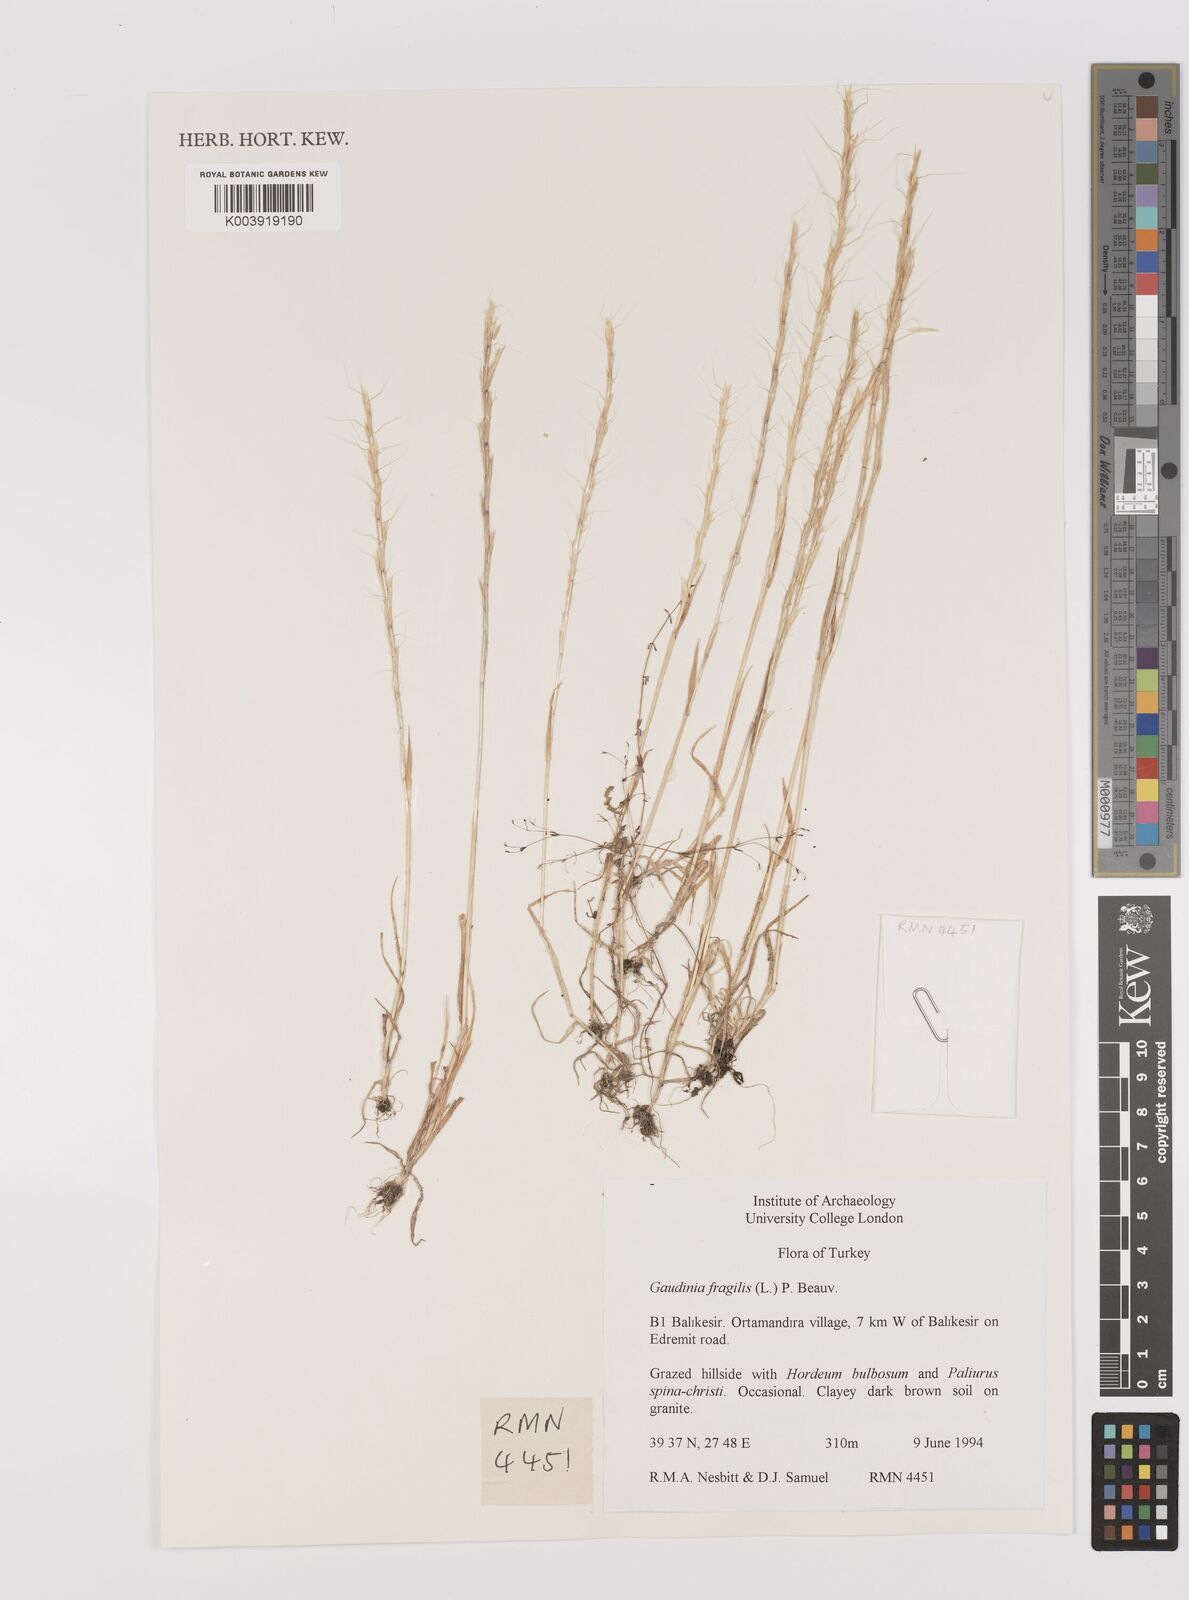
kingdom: Plantae
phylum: Tracheophyta
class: Liliopsida
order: Poales
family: Poaceae
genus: Gaudinia
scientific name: Gaudinia fragilis
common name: French oat-grass
